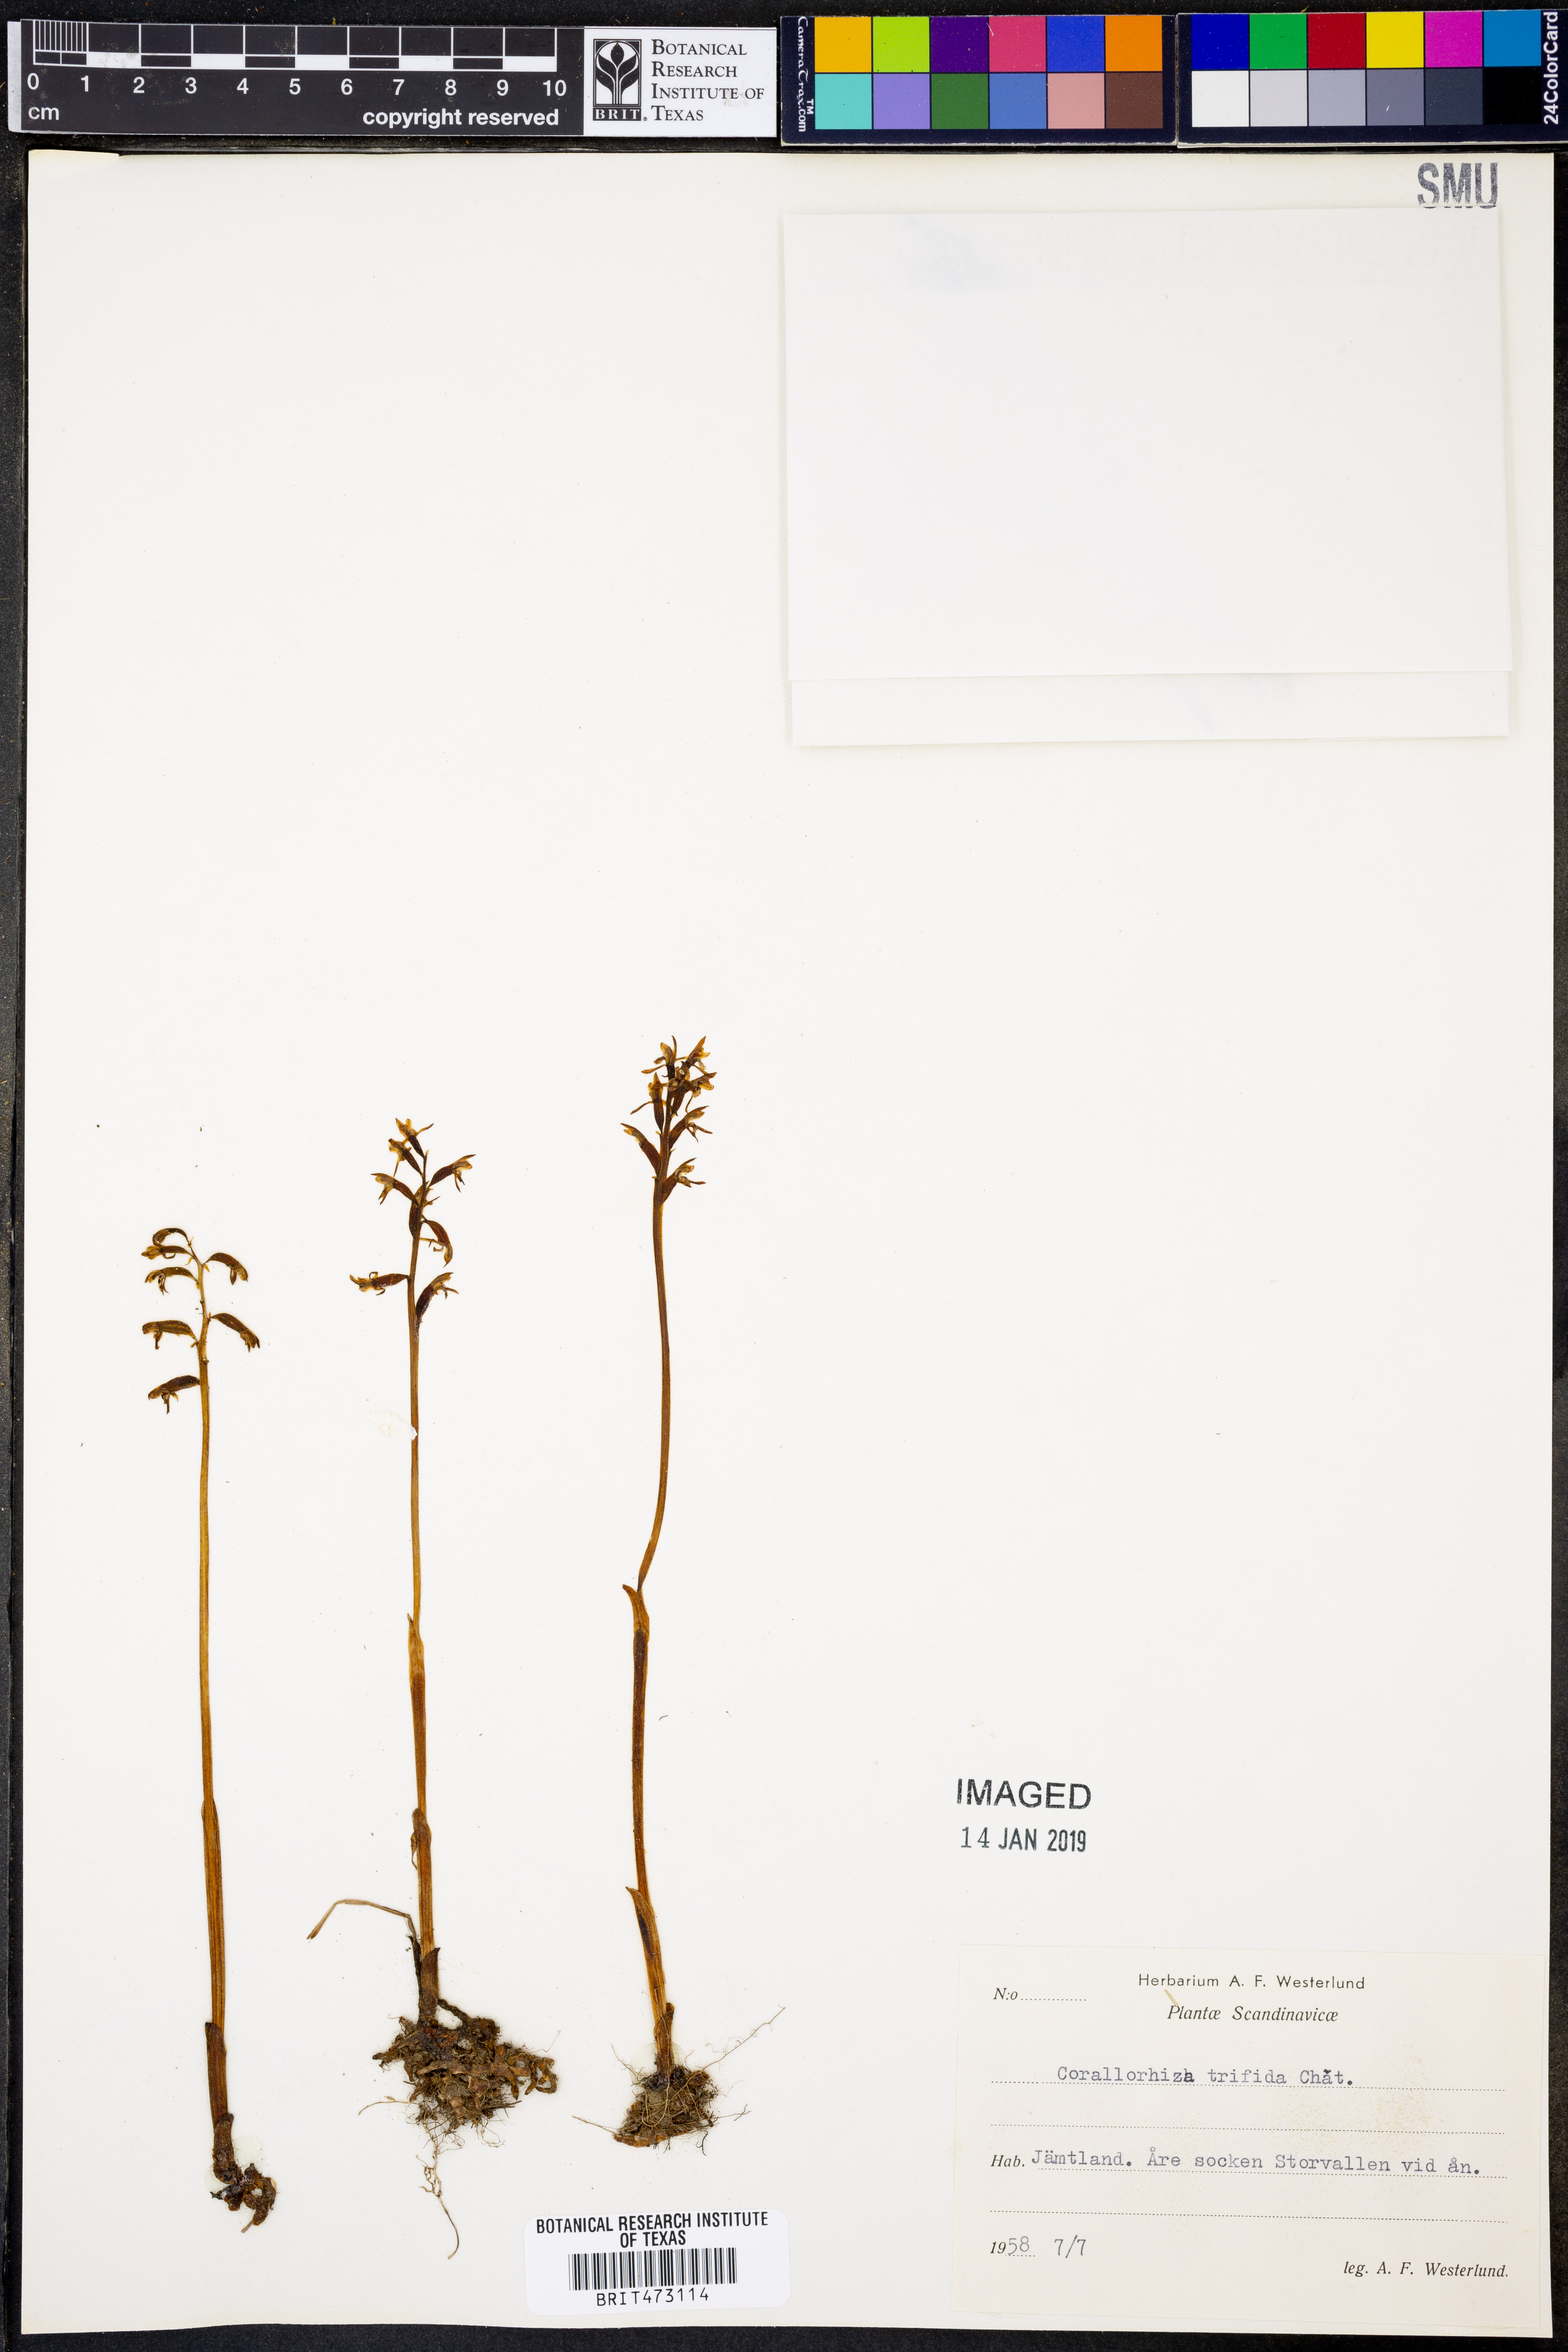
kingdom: Plantae
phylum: Tracheophyta
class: Liliopsida
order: Asparagales
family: Orchidaceae
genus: Corallorhiza
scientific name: Corallorhiza trifida
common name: Yellow coralroot
